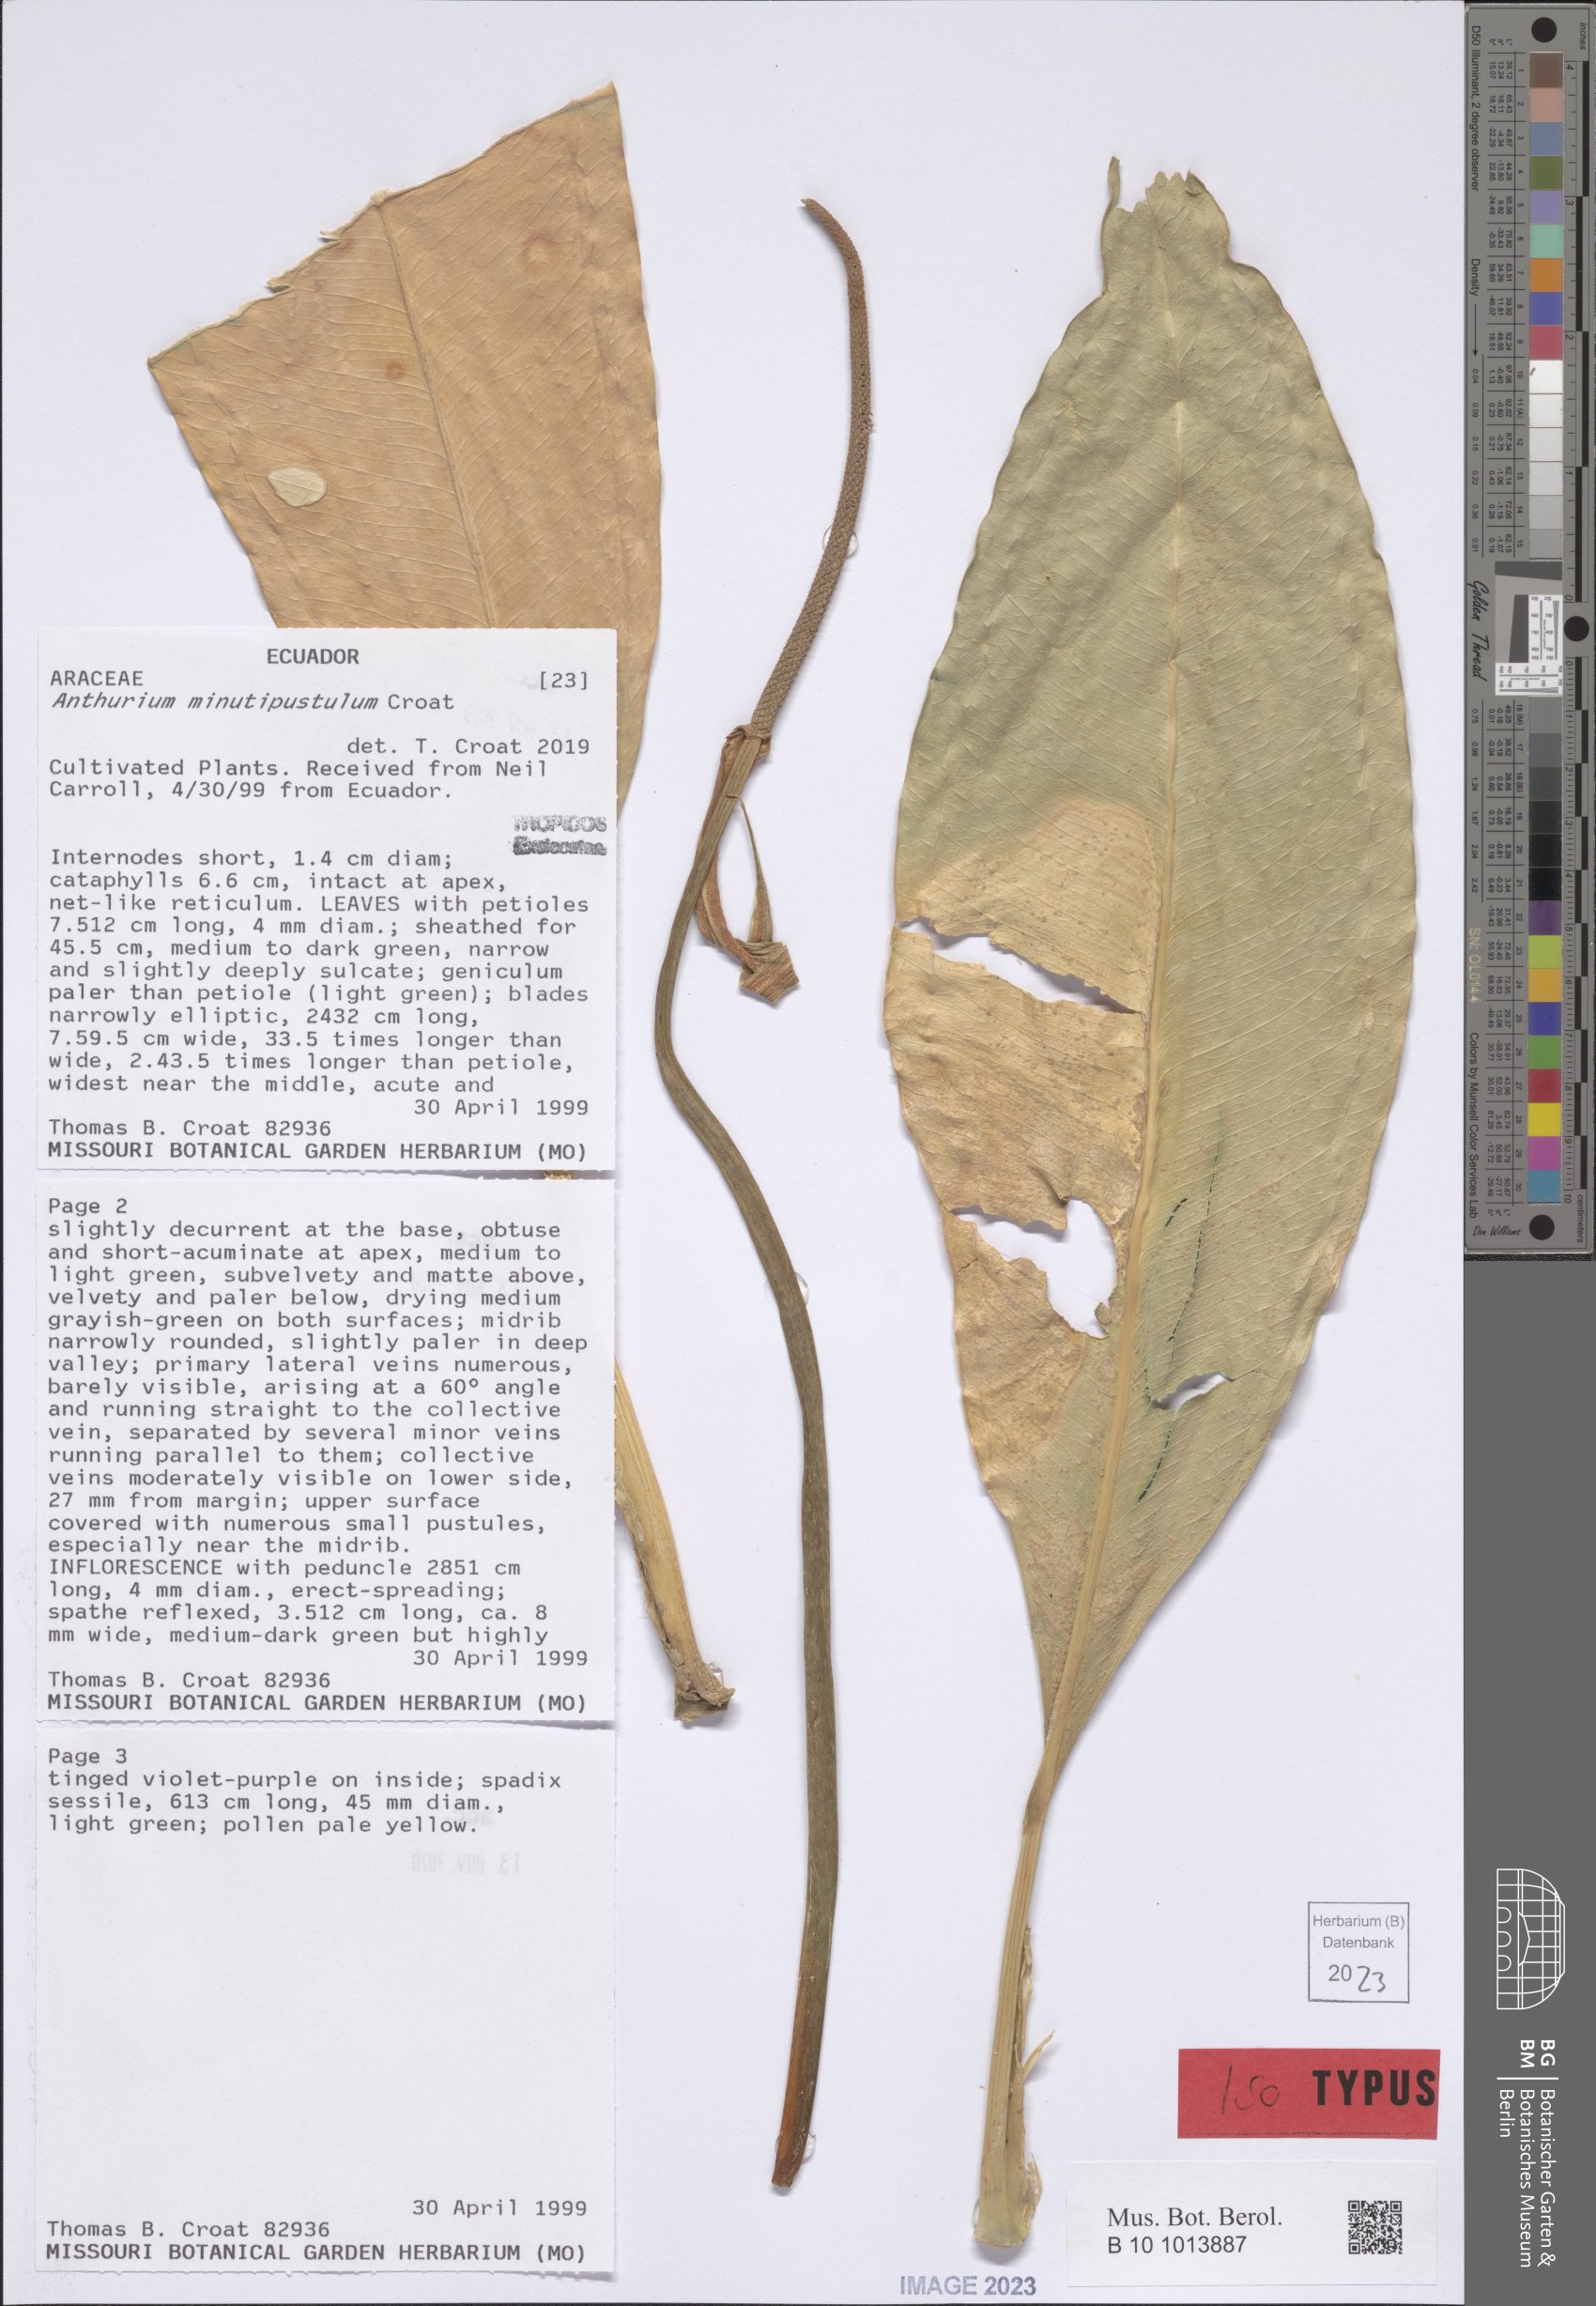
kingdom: Plantae
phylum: Tracheophyta
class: Liliopsida
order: Alismatales
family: Araceae
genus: Anthurium
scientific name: Anthurium minutipustulum
